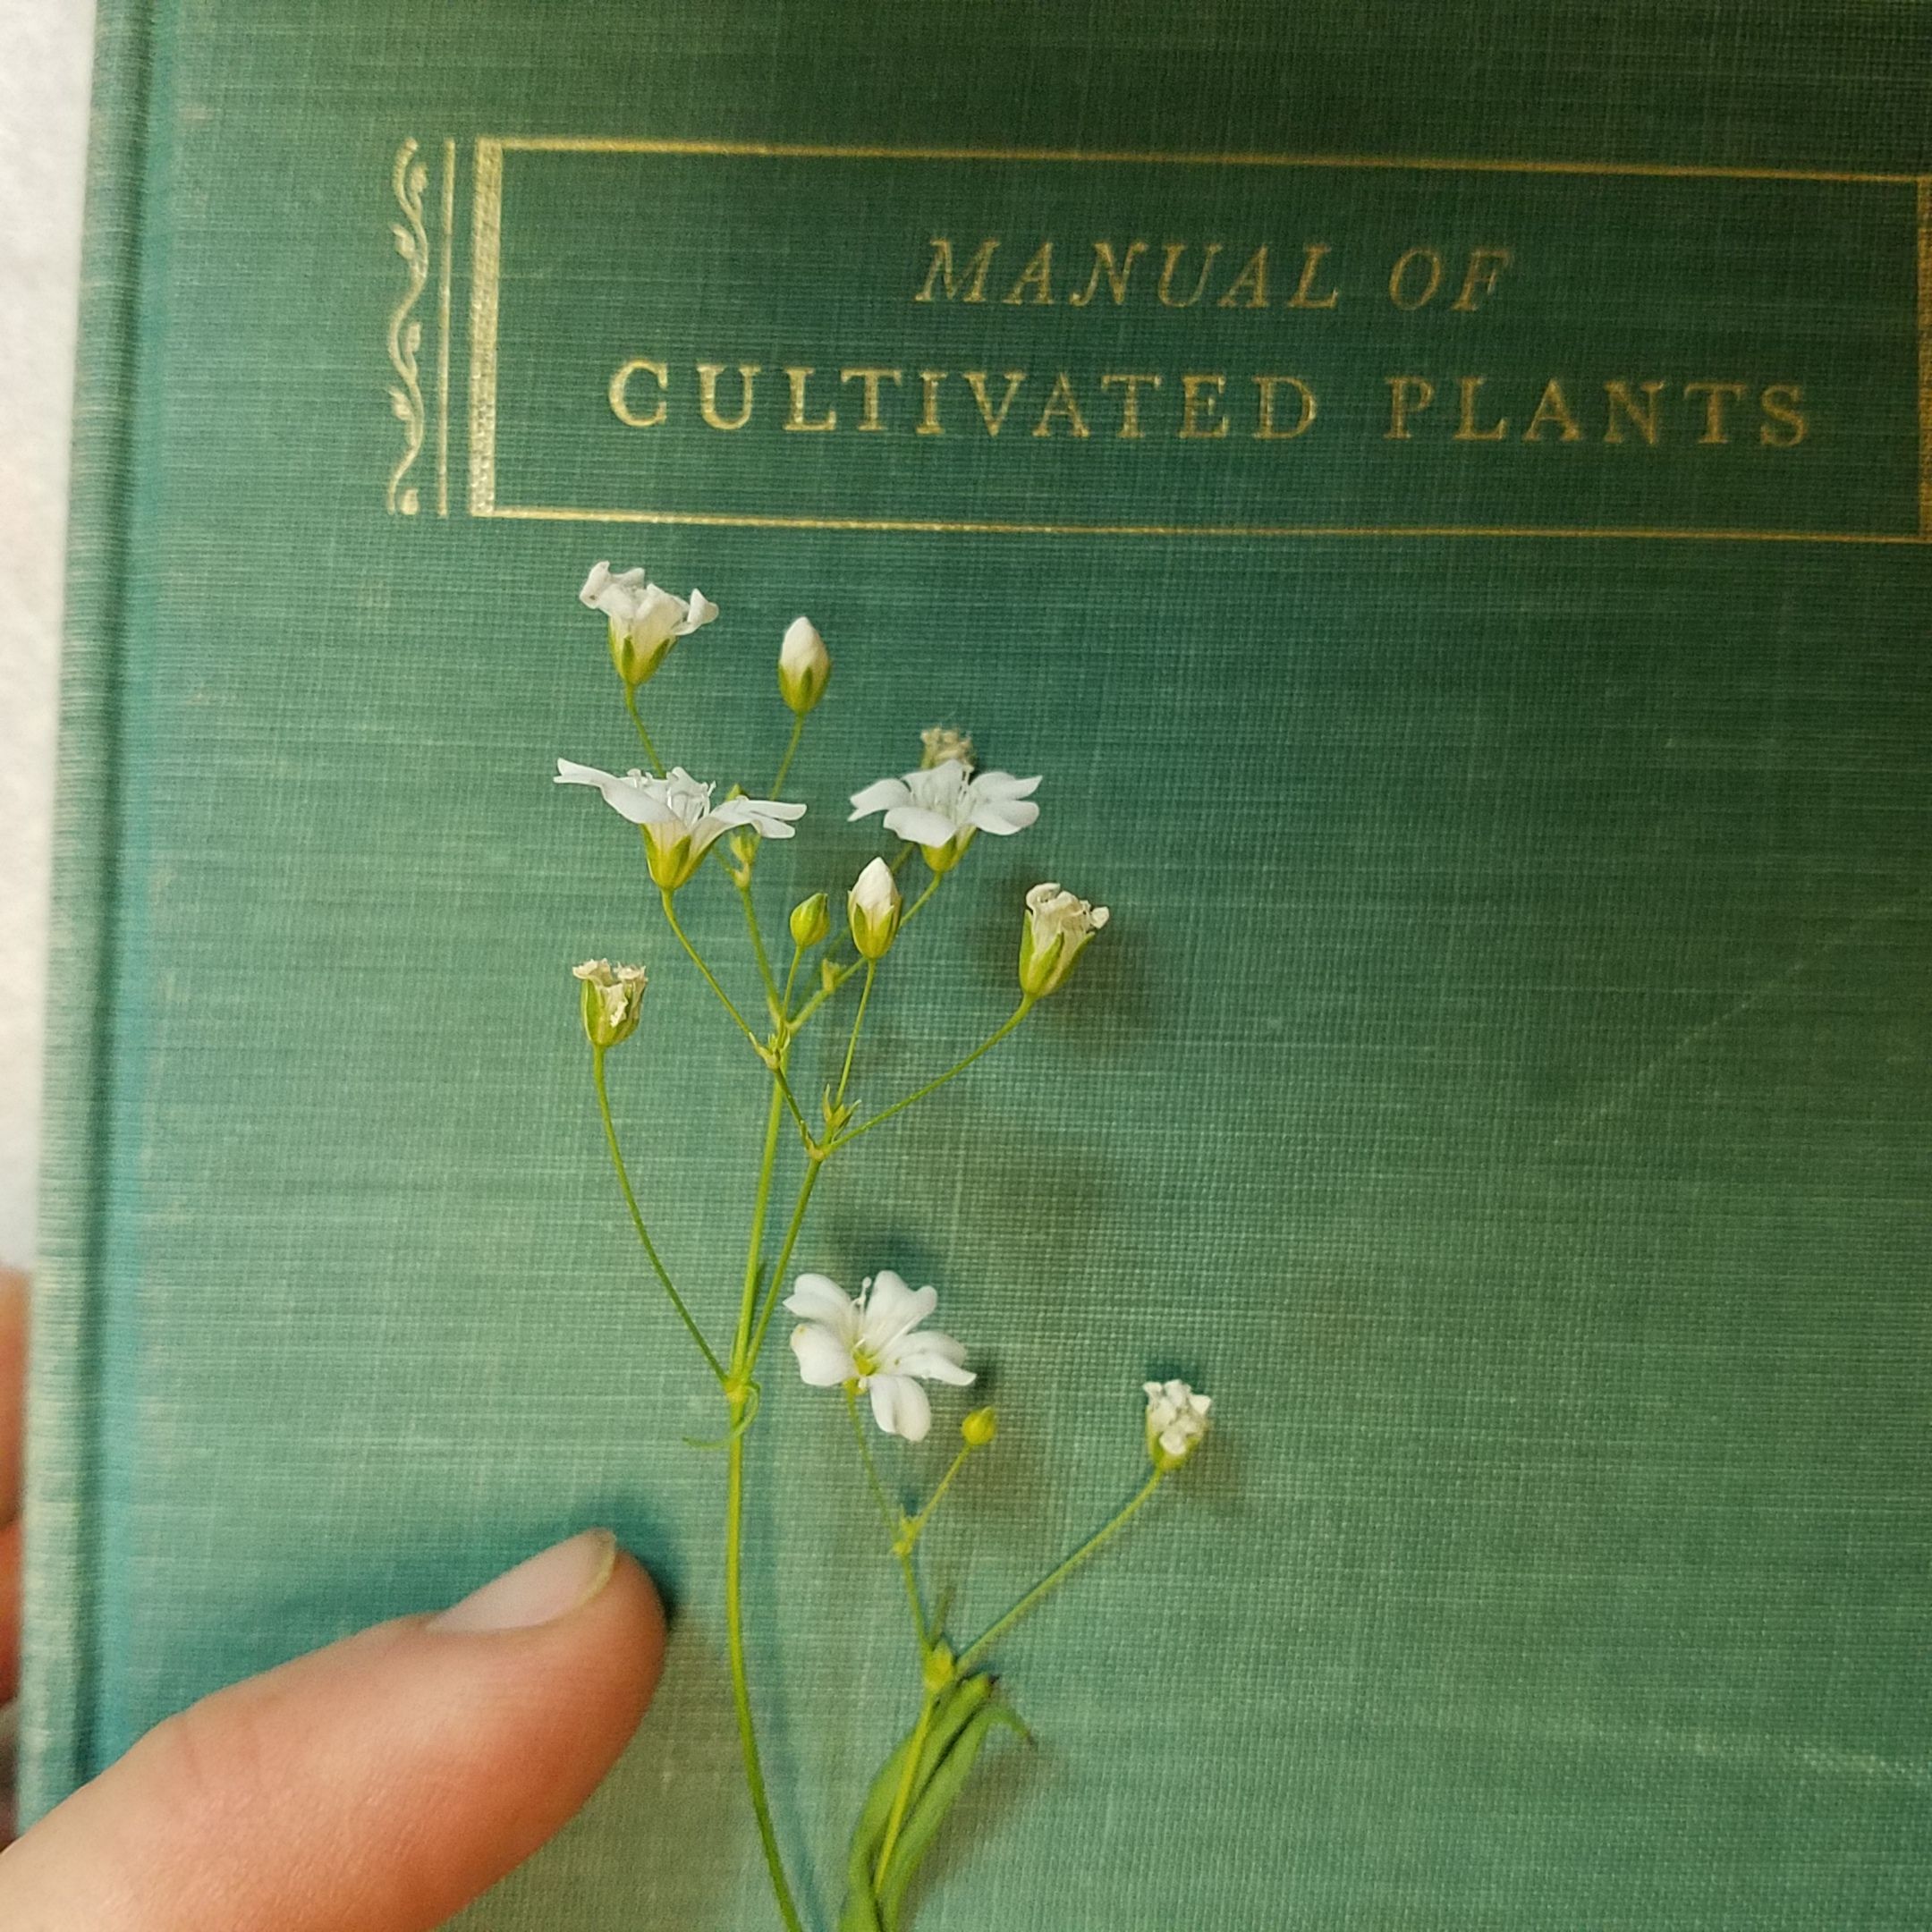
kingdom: Plantae
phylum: Tracheophyta
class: Magnoliopsida
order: Caryophyllales
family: Caryophyllaceae
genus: Gypsophila
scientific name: Gypsophila elegans
